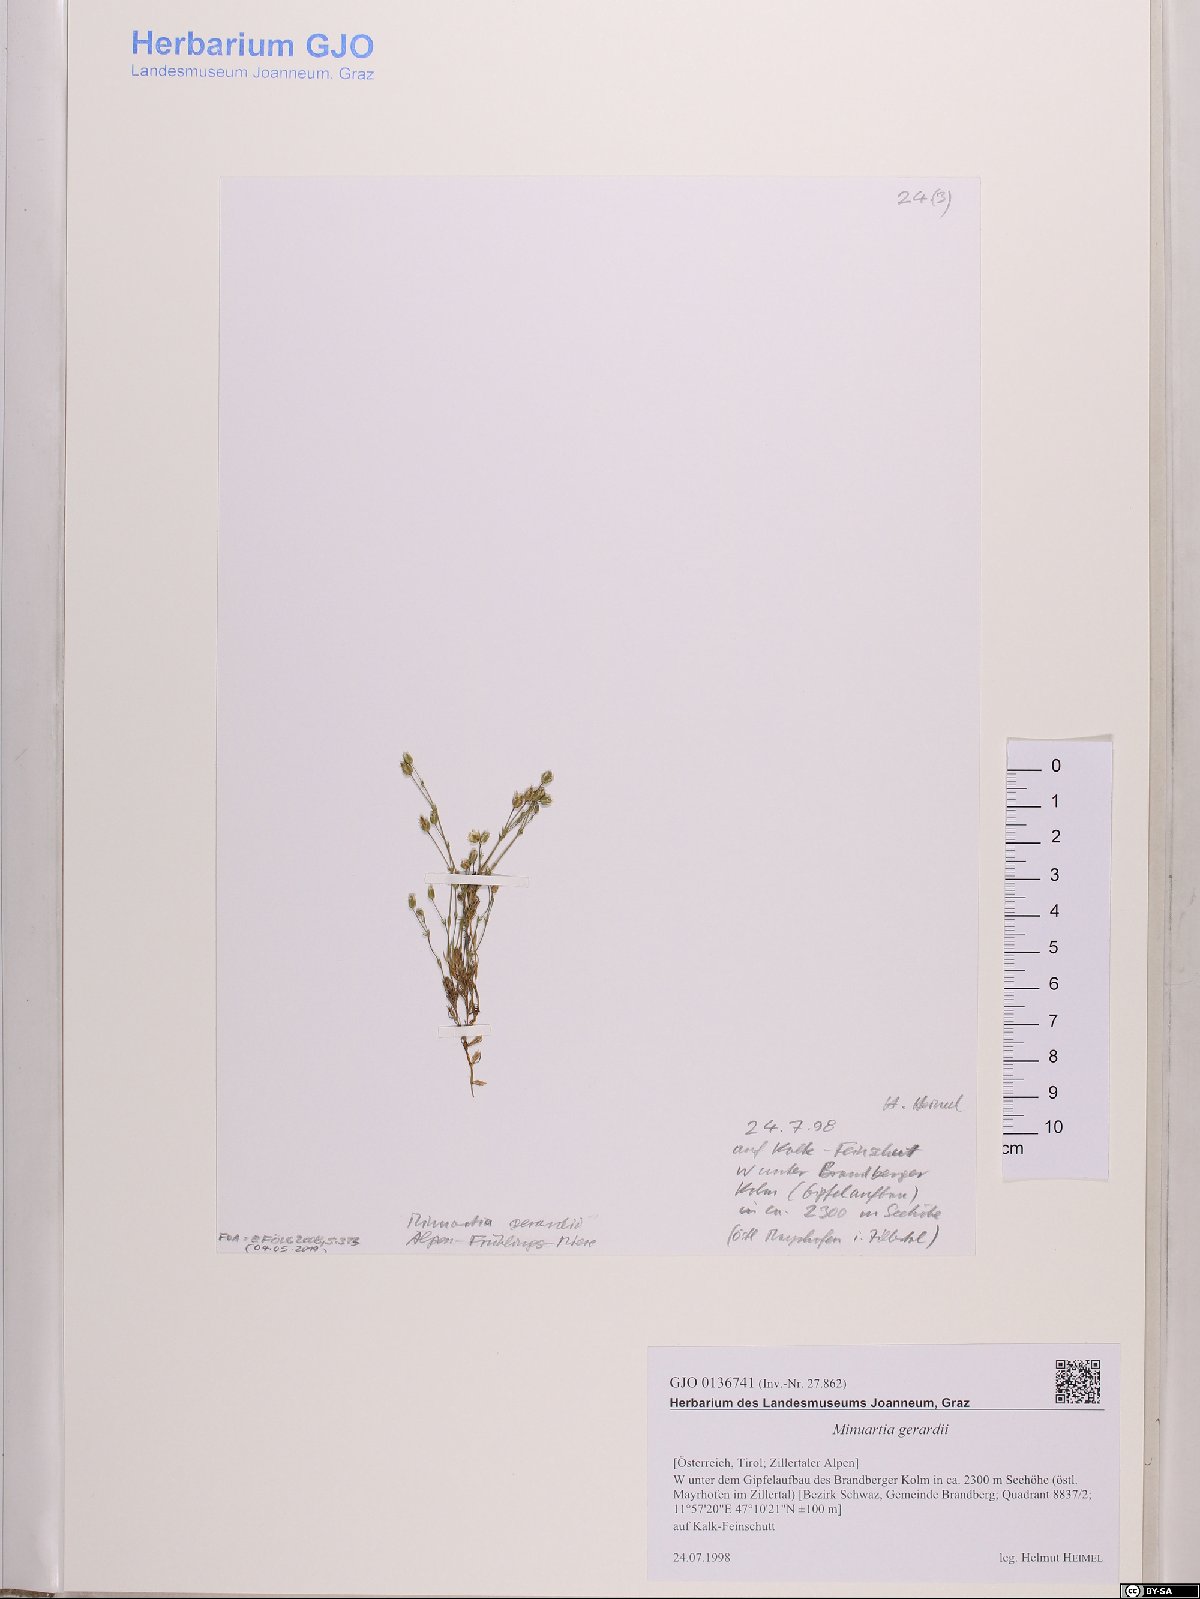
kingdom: Plantae
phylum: Tracheophyta
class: Magnoliopsida
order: Caryophyllales
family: Caryophyllaceae
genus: Sabulina
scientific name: Sabulina verna
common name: Spring sandwort
